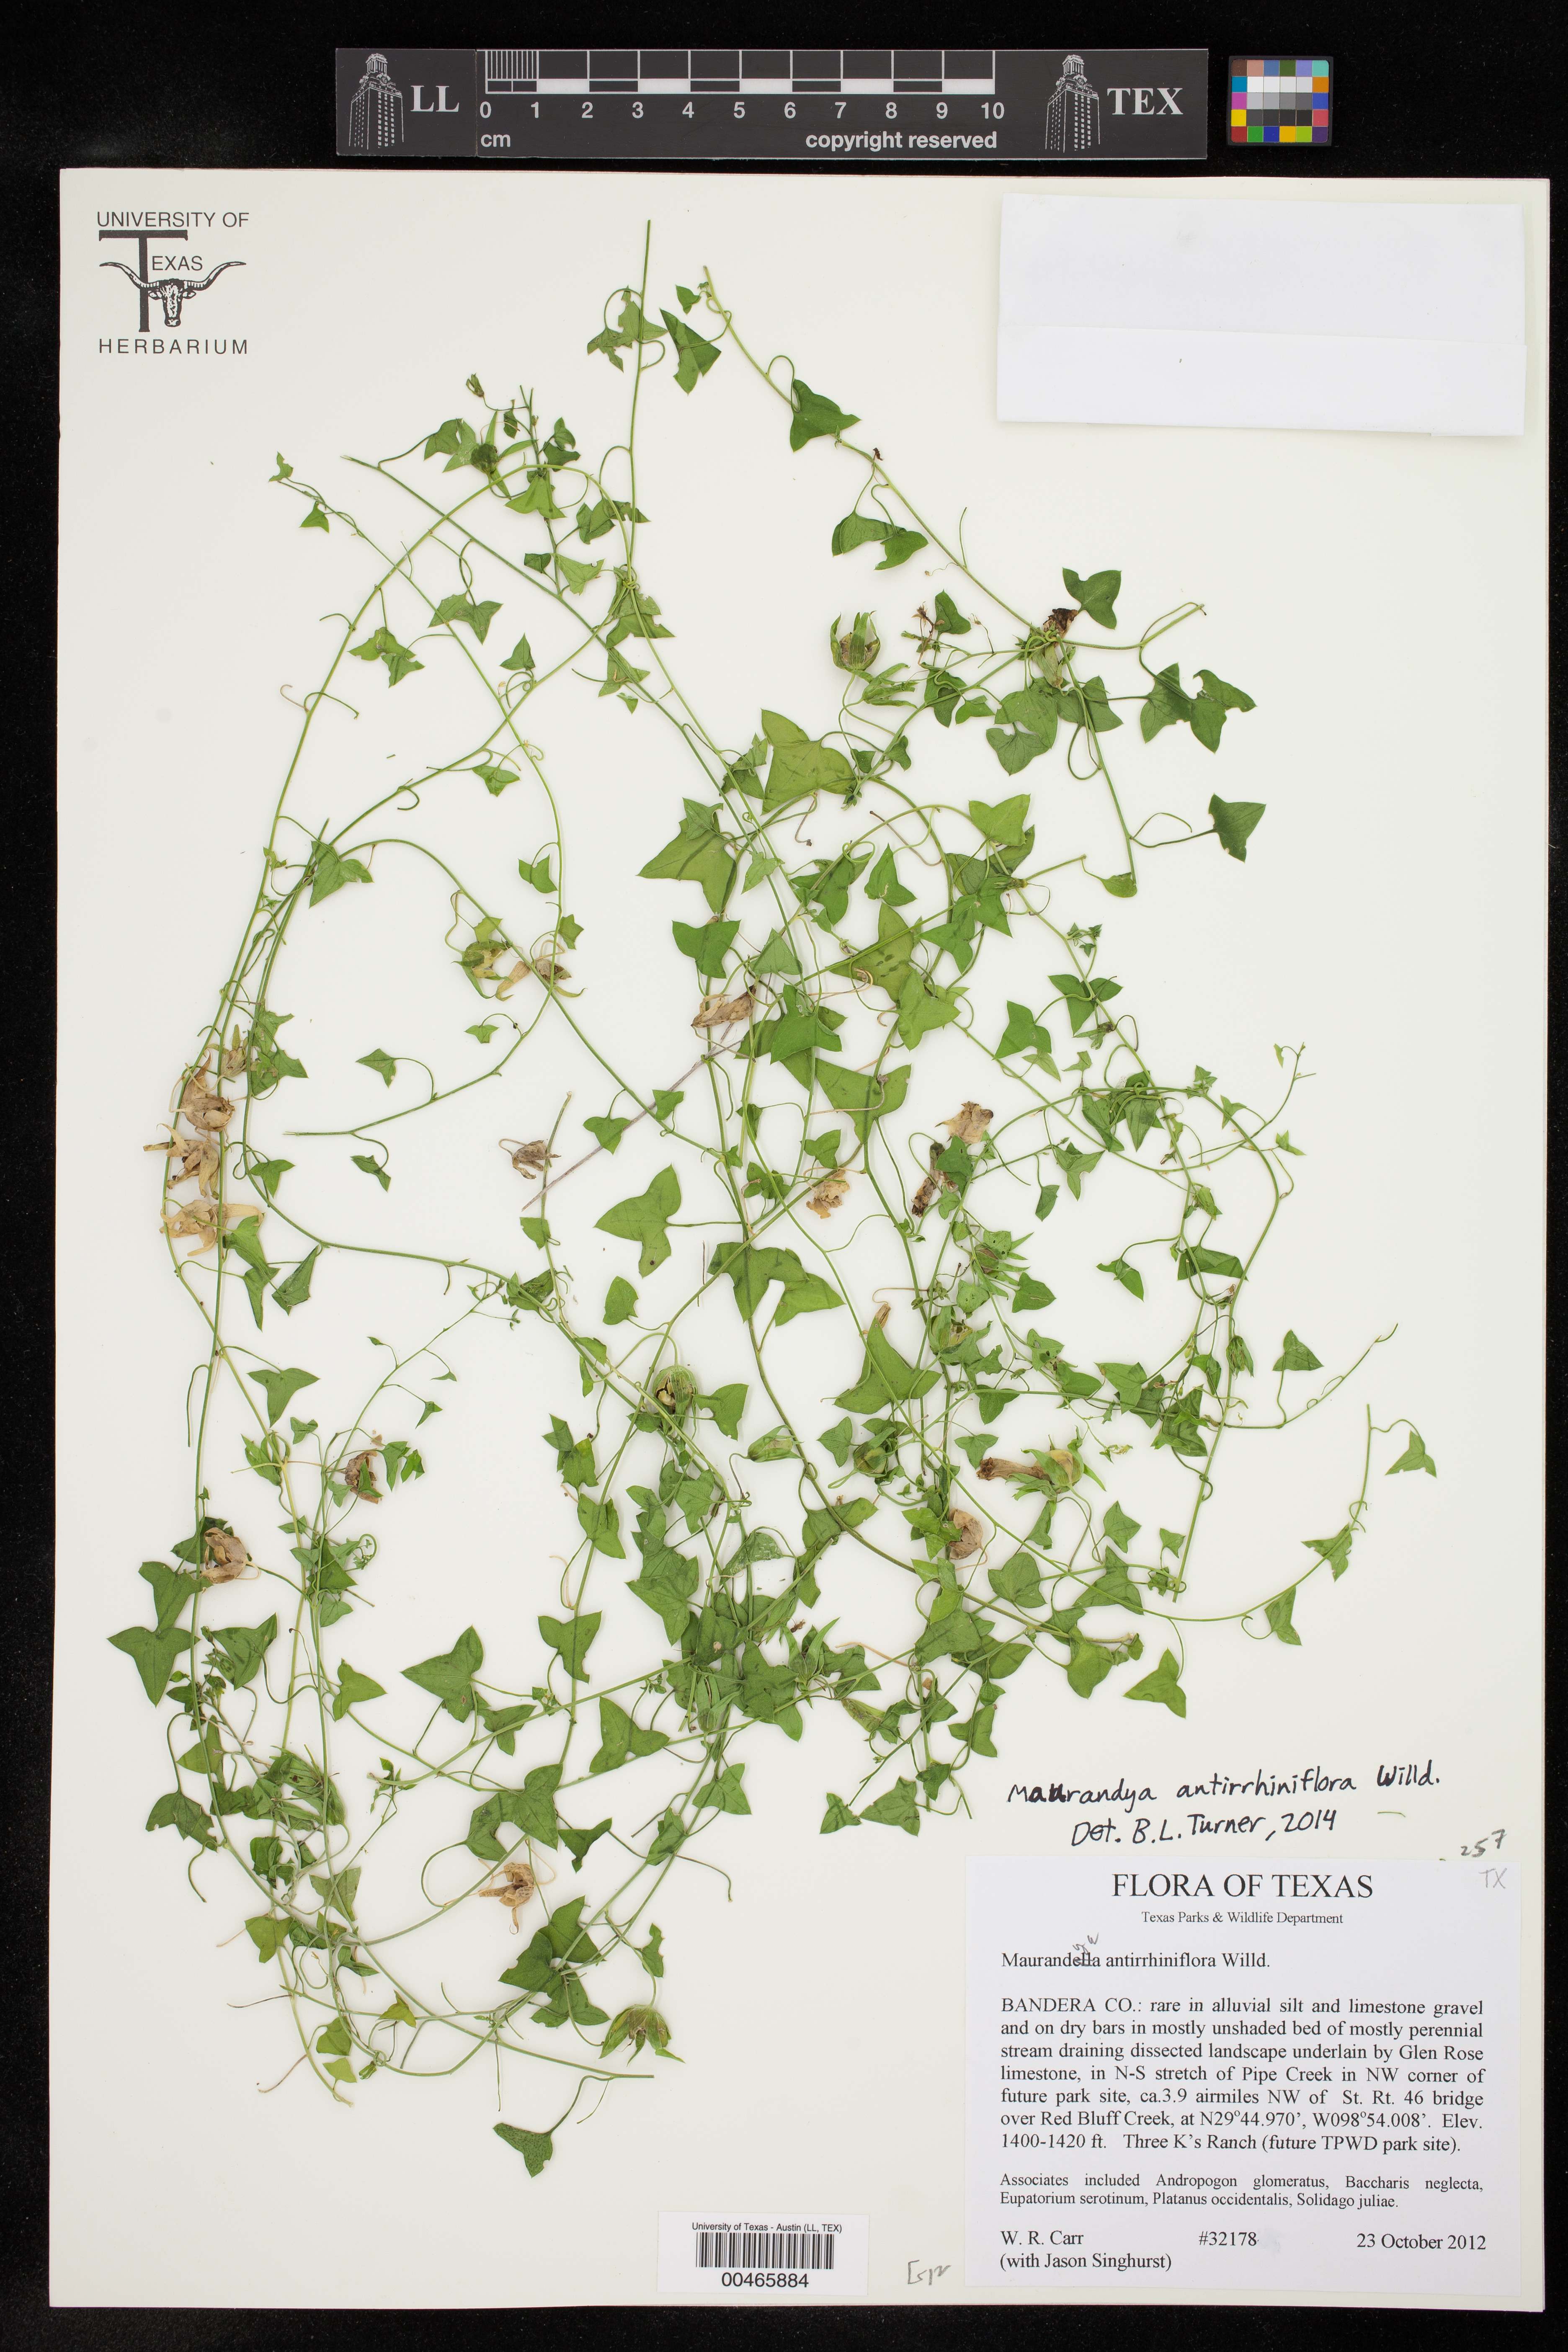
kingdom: Plantae
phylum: Tracheophyta
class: Magnoliopsida
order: Lamiales
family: Plantaginaceae
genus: Maurandella
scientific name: Maurandella antirrhiniflora
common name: Violet twining-snapdragon
